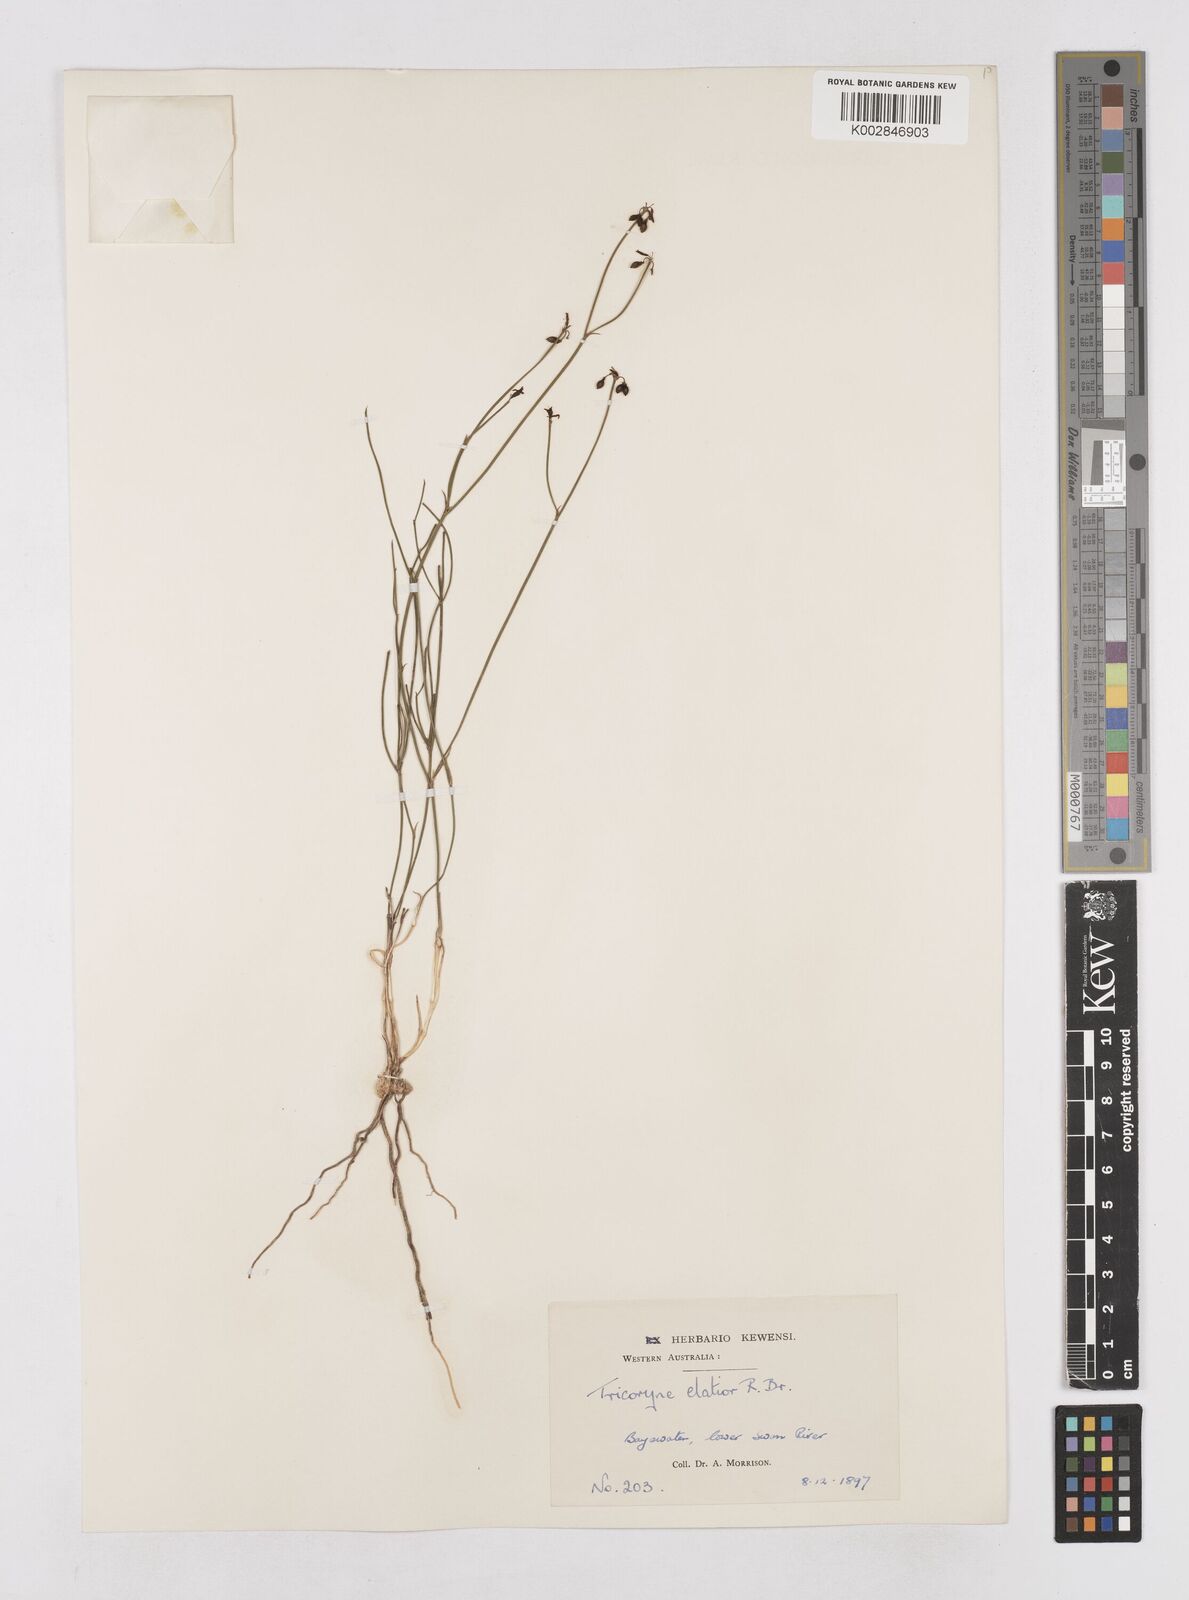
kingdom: Plantae
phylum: Tracheophyta
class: Liliopsida
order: Asparagales
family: Asphodelaceae
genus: Tricoryne
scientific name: Tricoryne elatior
